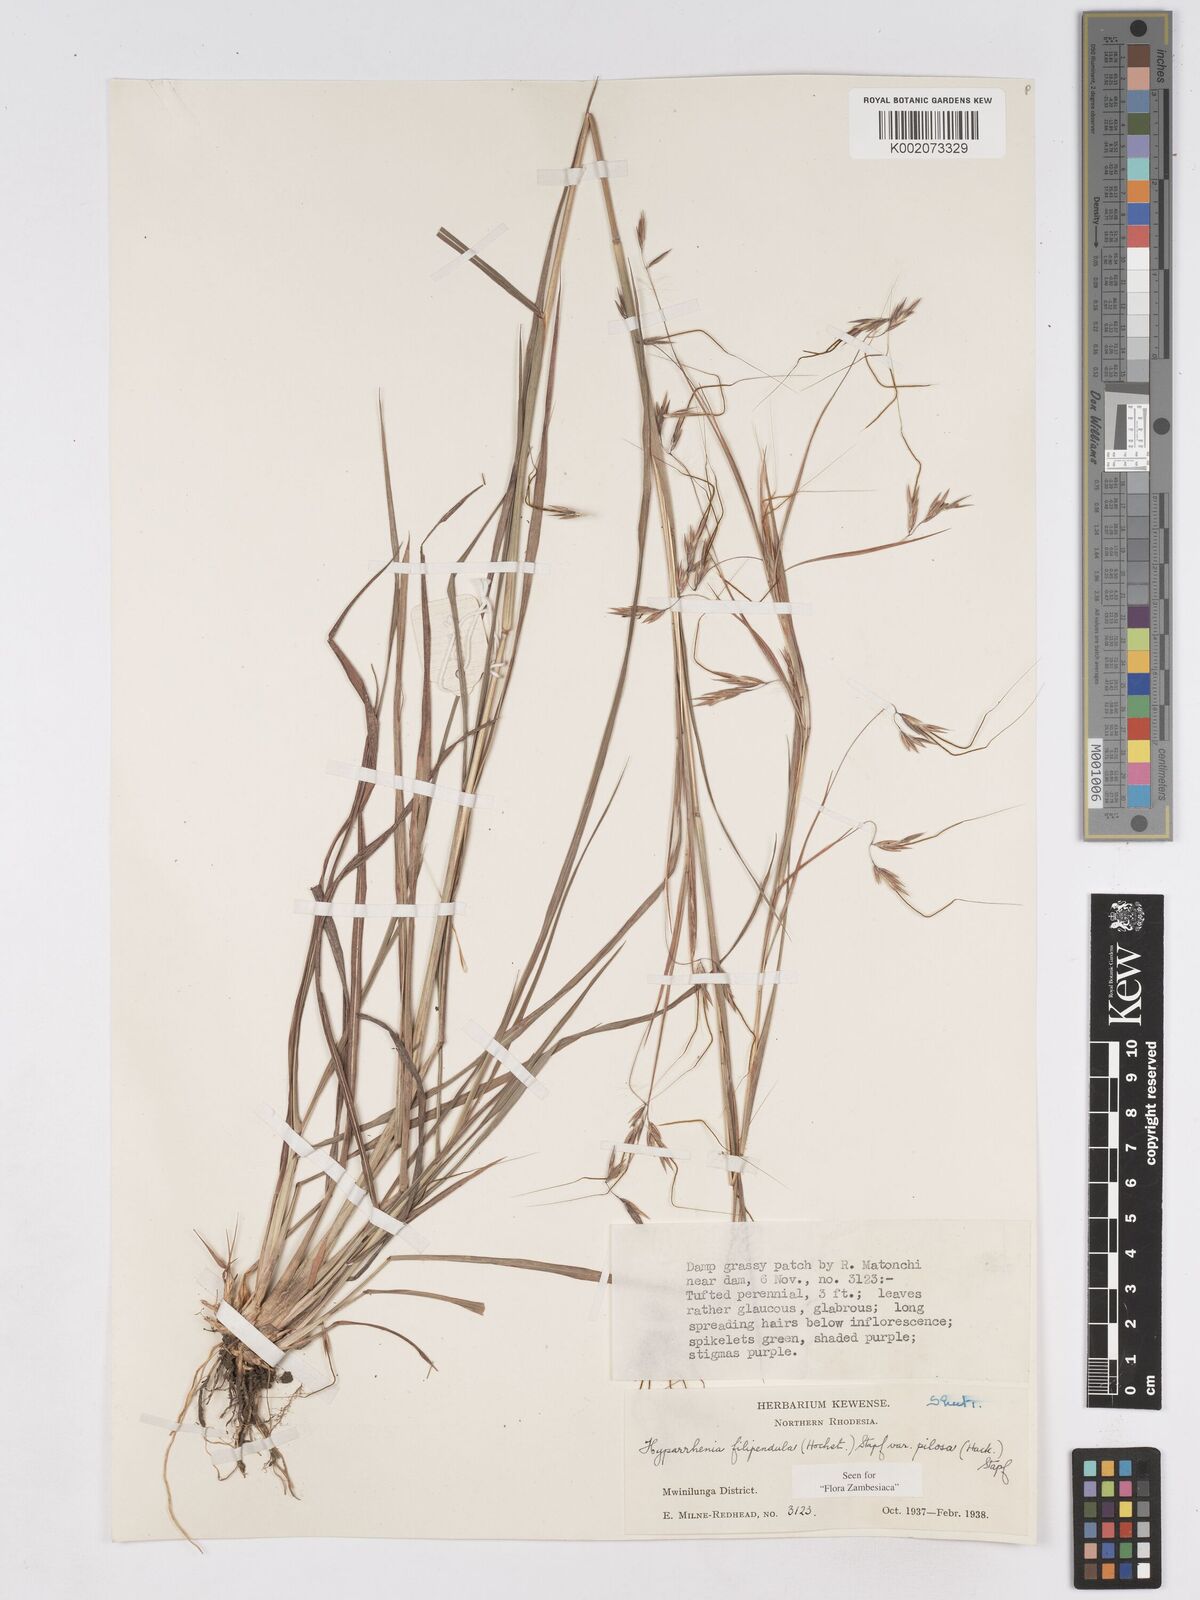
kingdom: Plantae
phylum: Tracheophyta
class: Liliopsida
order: Poales
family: Poaceae
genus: Hyparrhenia
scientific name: Hyparrhenia filipendula
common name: Tambookie grass
